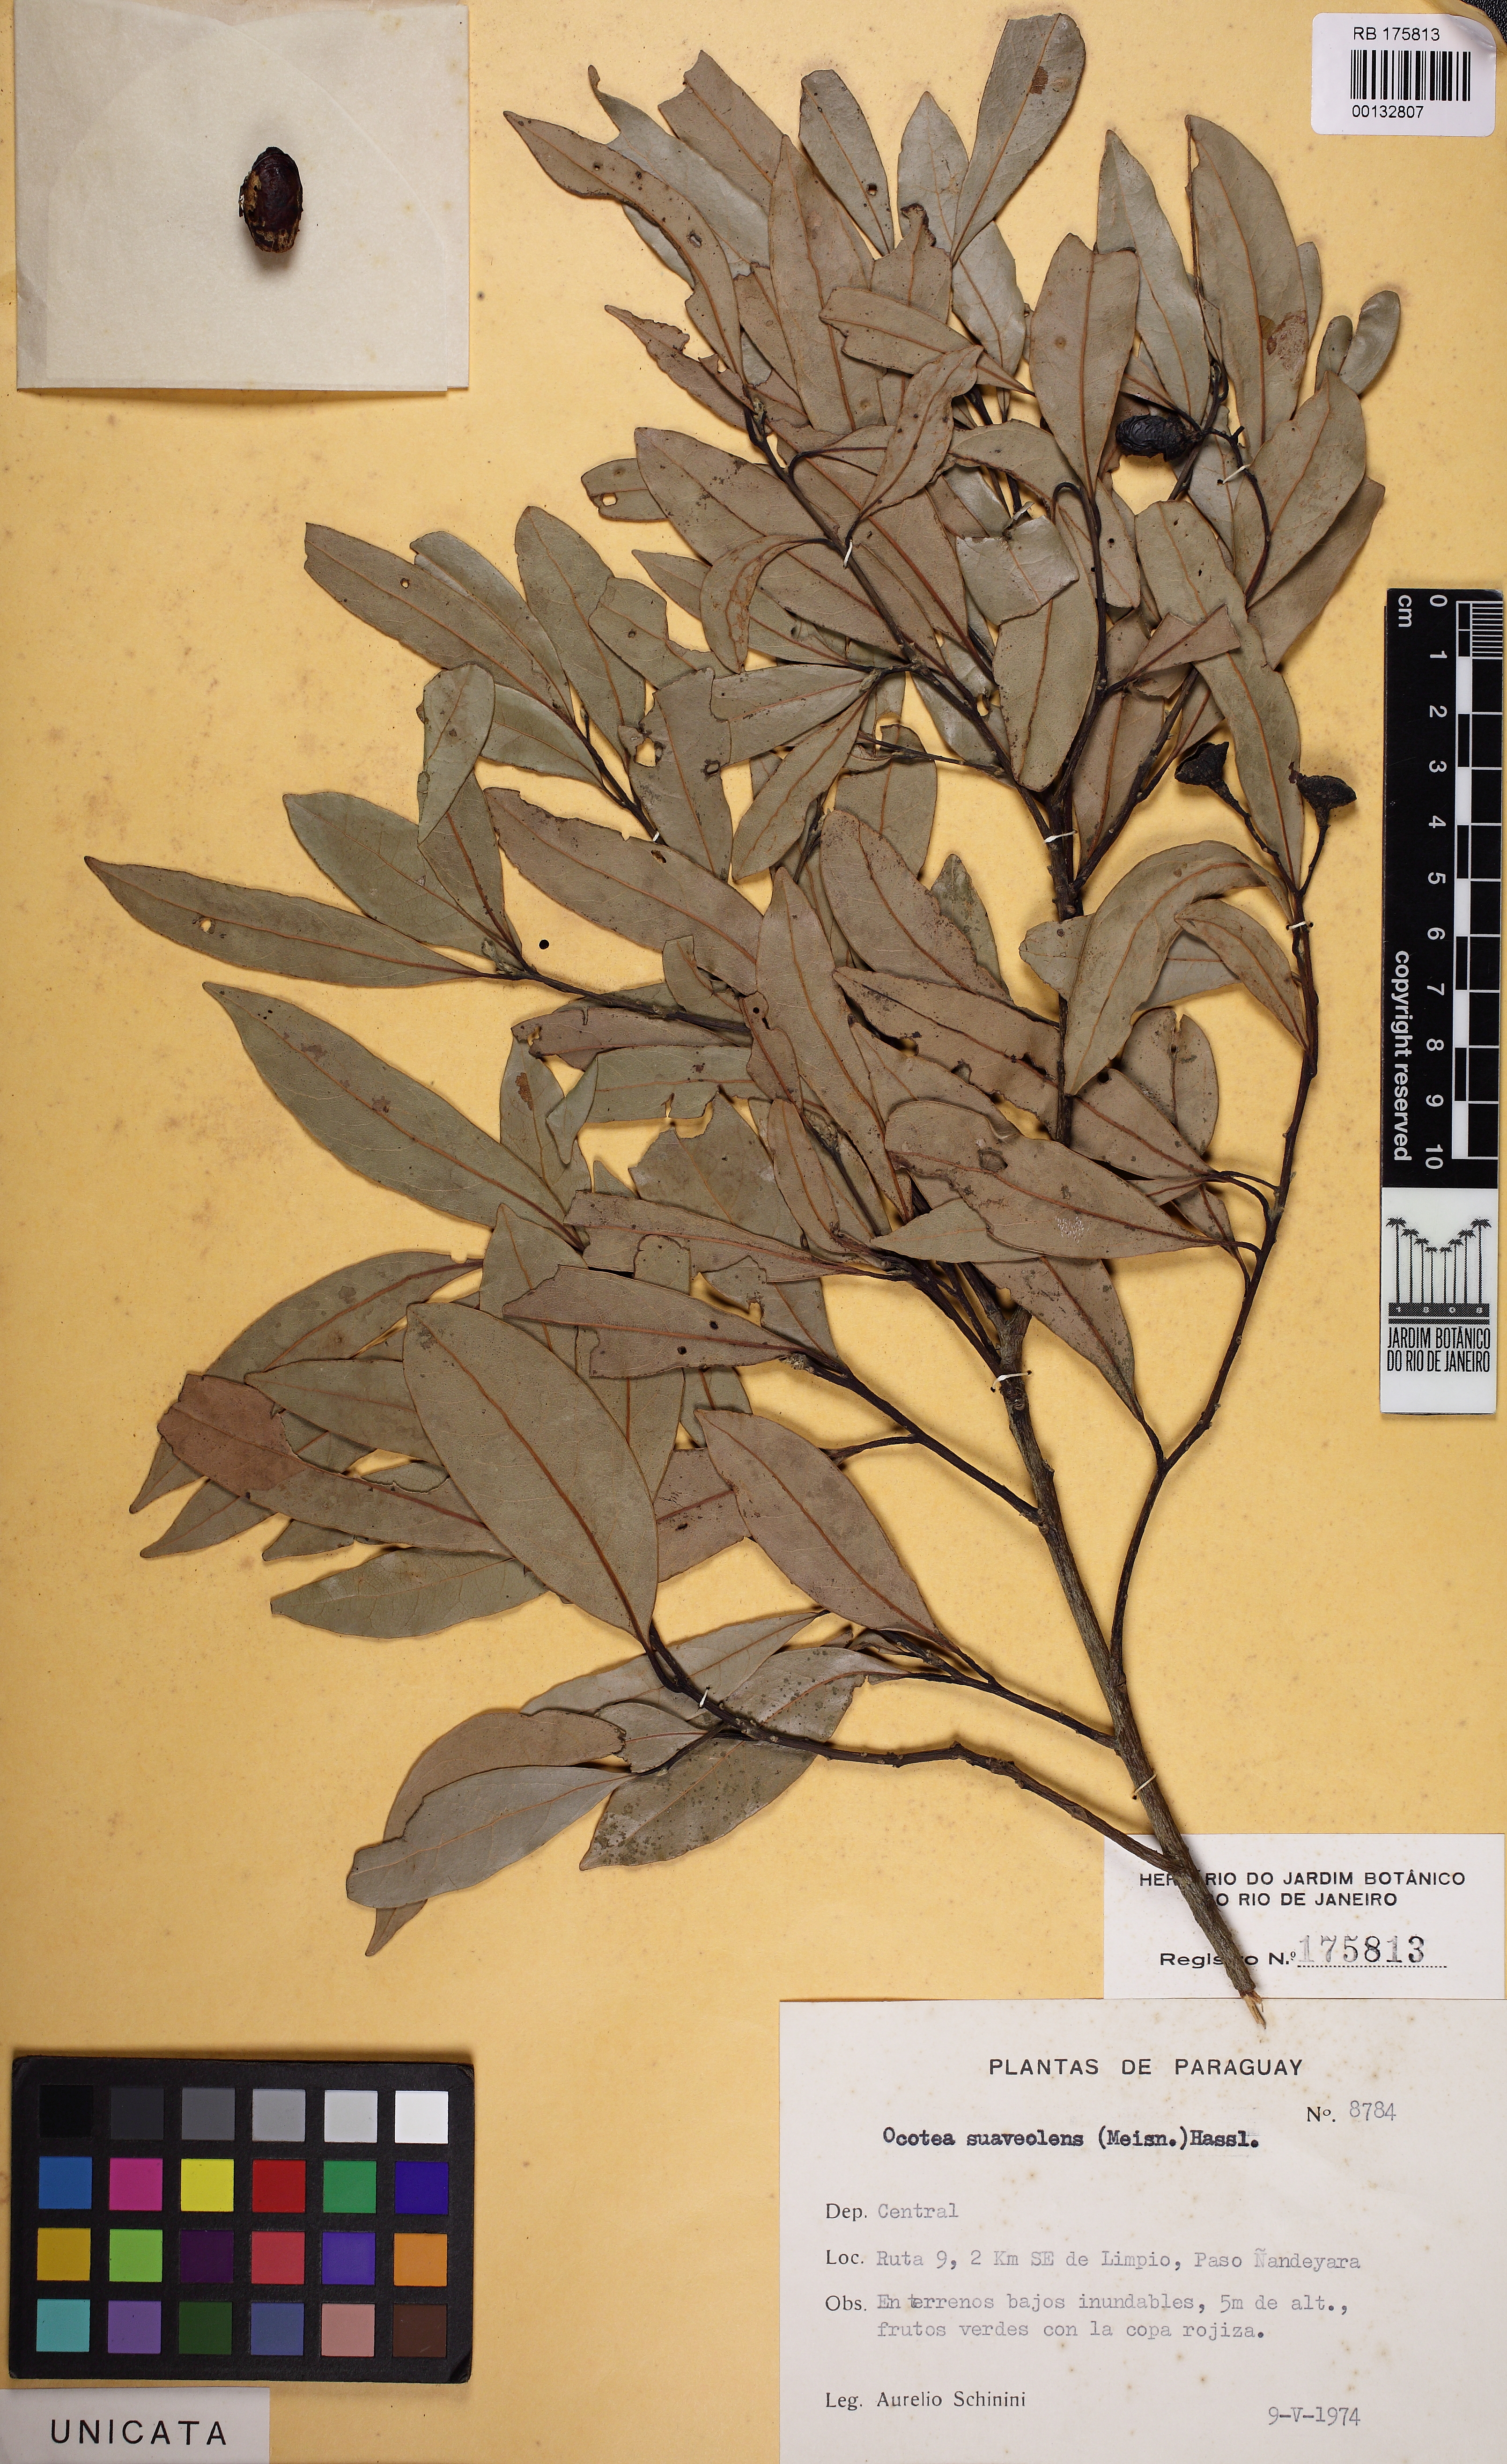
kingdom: Plantae
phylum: Tracheophyta
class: Magnoliopsida
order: Laurales
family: Lauraceae
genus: Ocotea
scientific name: Ocotea diospyrifolia
